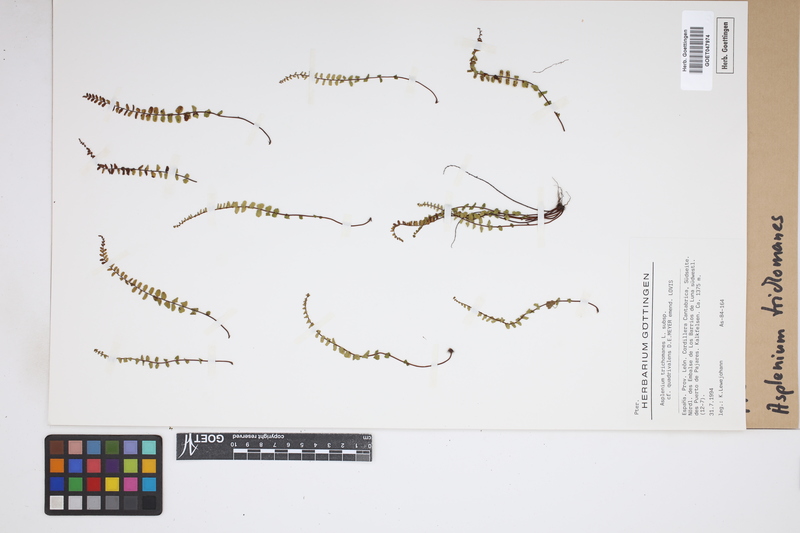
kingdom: Plantae
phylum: Tracheophyta
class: Polypodiopsida
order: Polypodiales
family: Aspleniaceae
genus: Asplenium
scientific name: Asplenium trichomanes
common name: Maidenhair spleenwort
